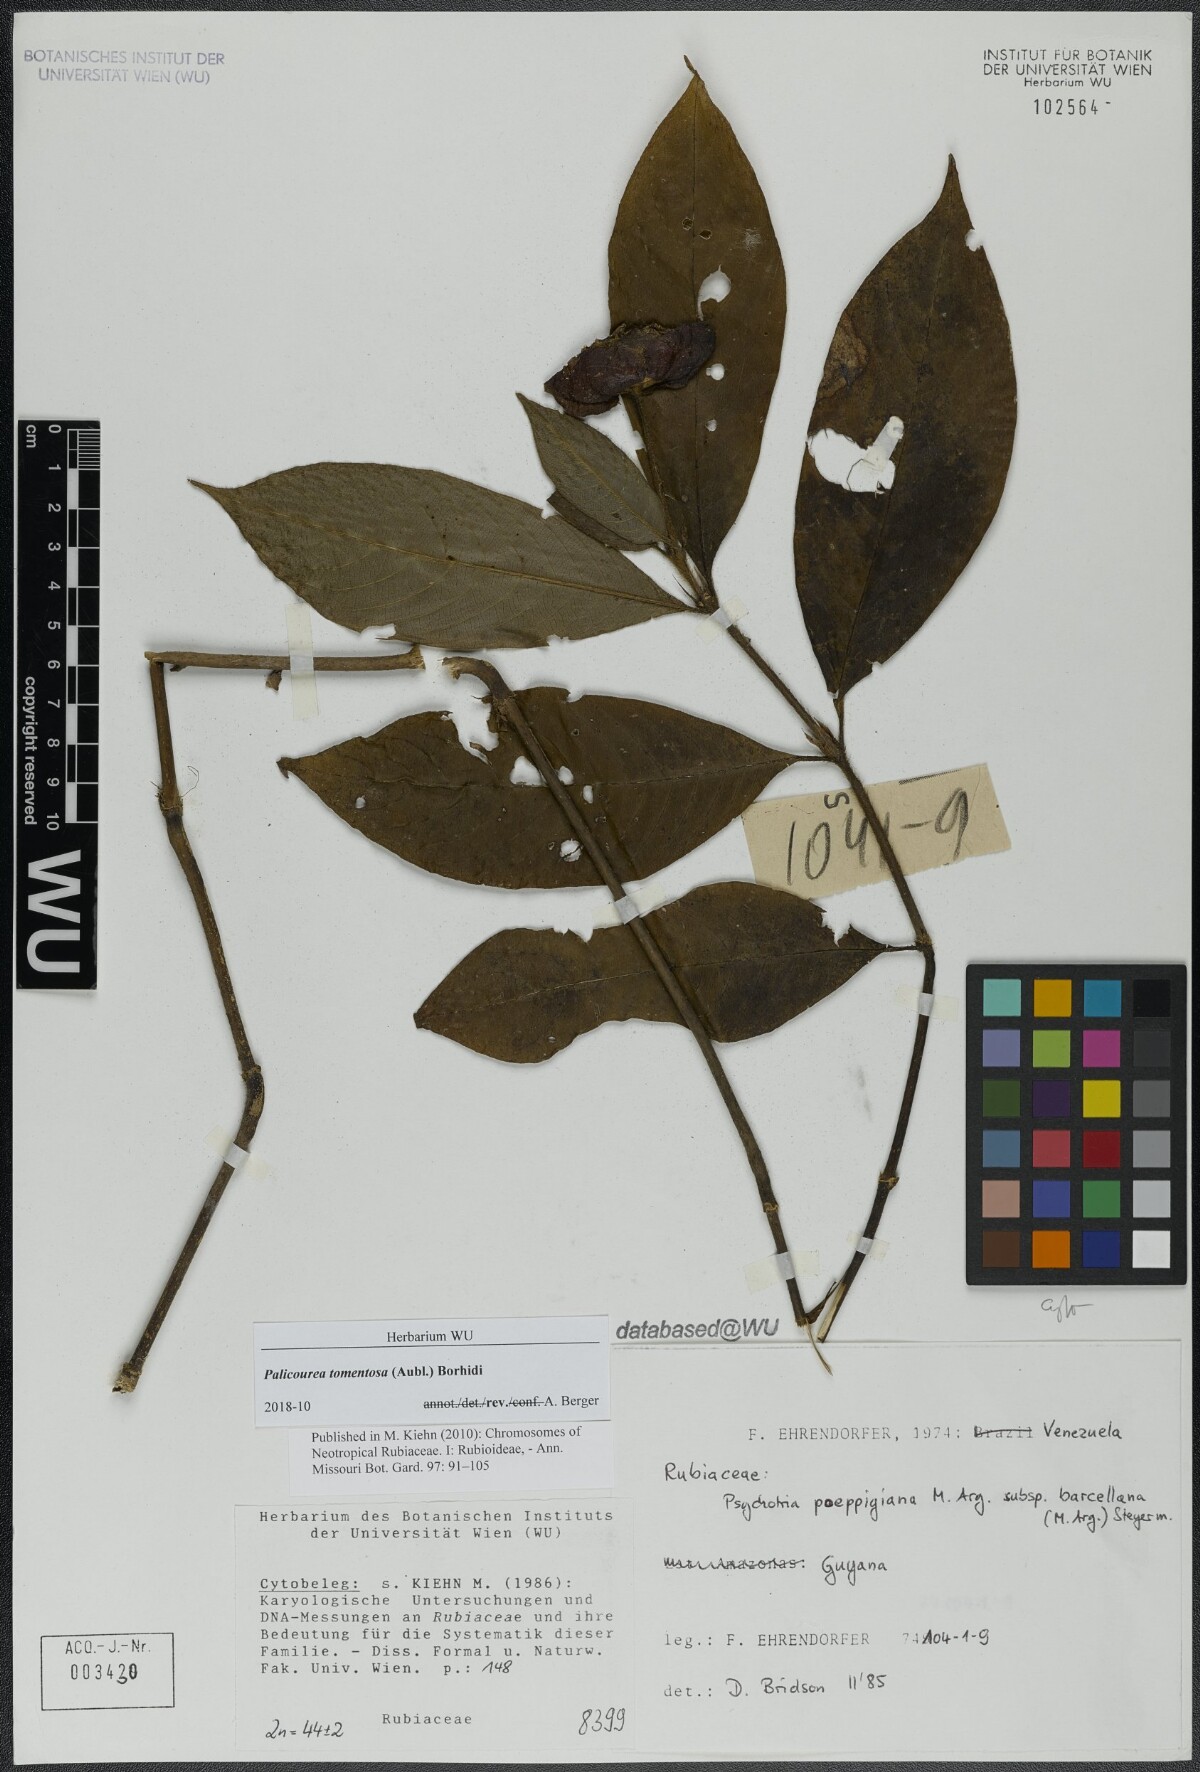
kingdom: Plantae
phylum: Tracheophyta
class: Magnoliopsida
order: Gentianales
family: Rubiaceae
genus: Palicourea
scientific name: Palicourea tomentosa
